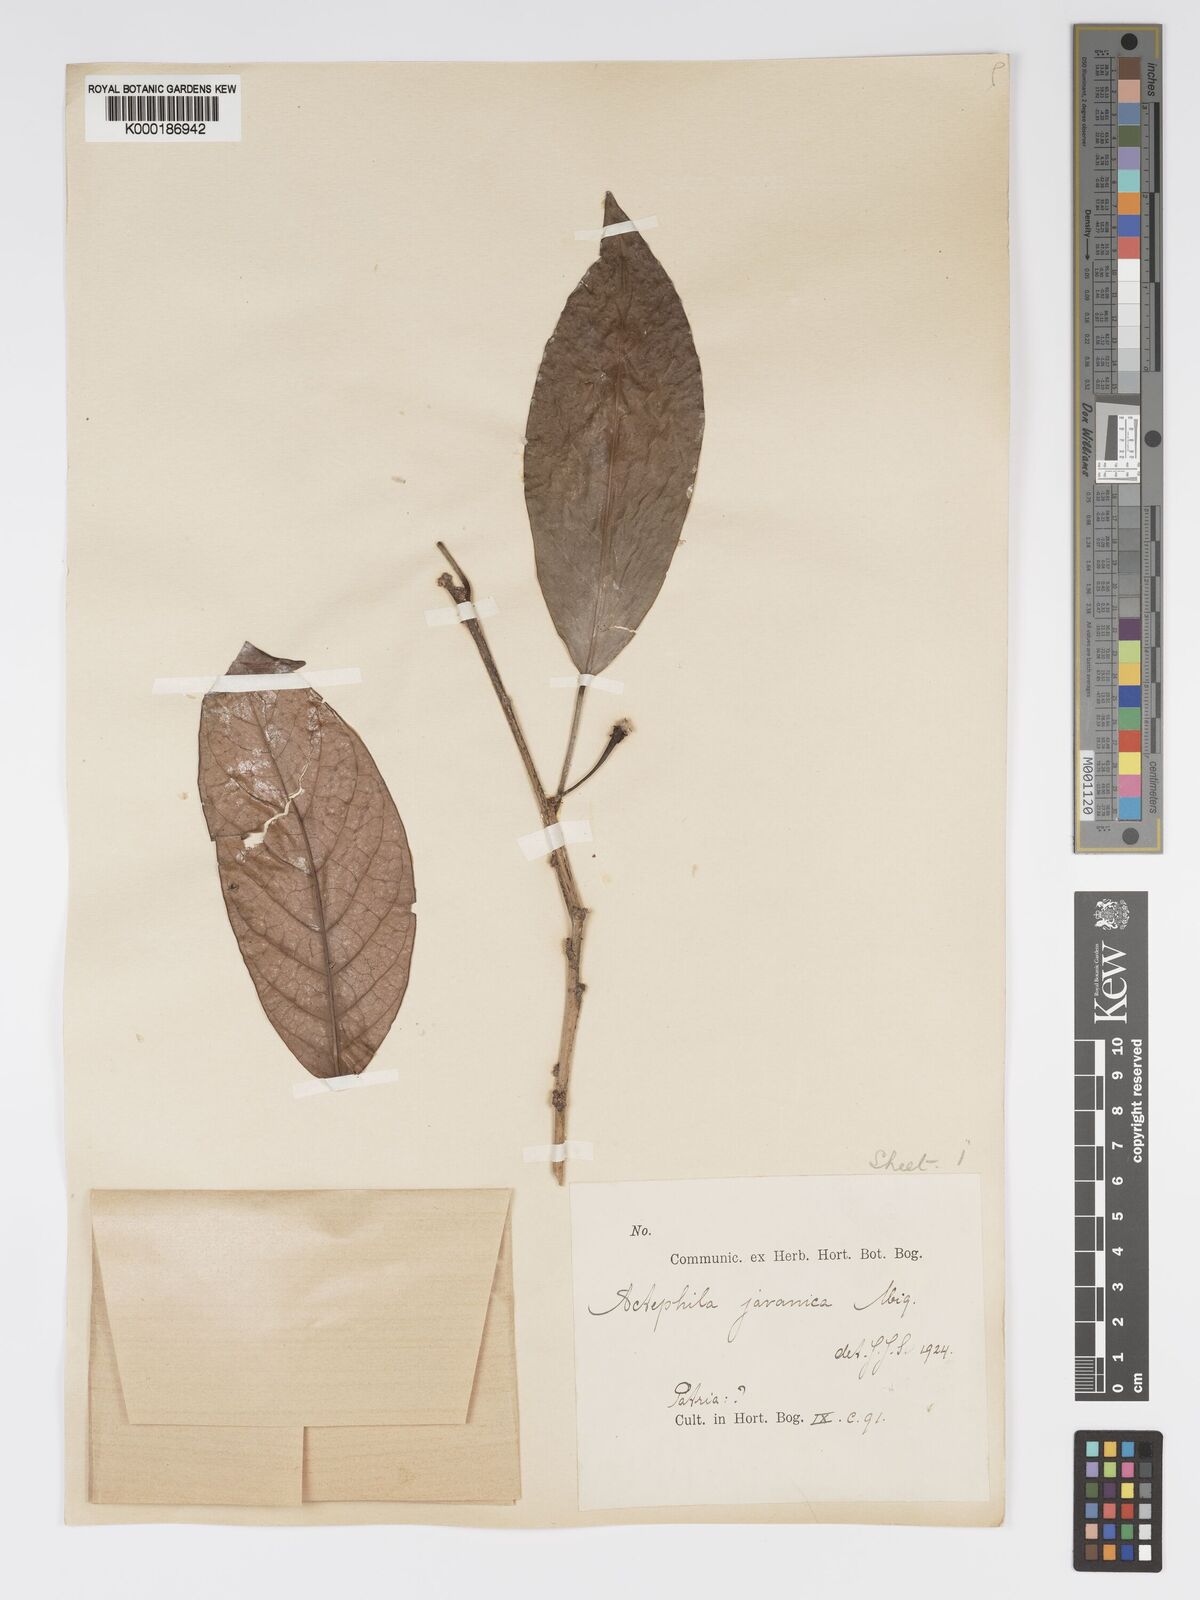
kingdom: Plantae
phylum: Tracheophyta
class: Magnoliopsida
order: Malpighiales
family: Phyllanthaceae
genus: Actephila
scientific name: Actephila
